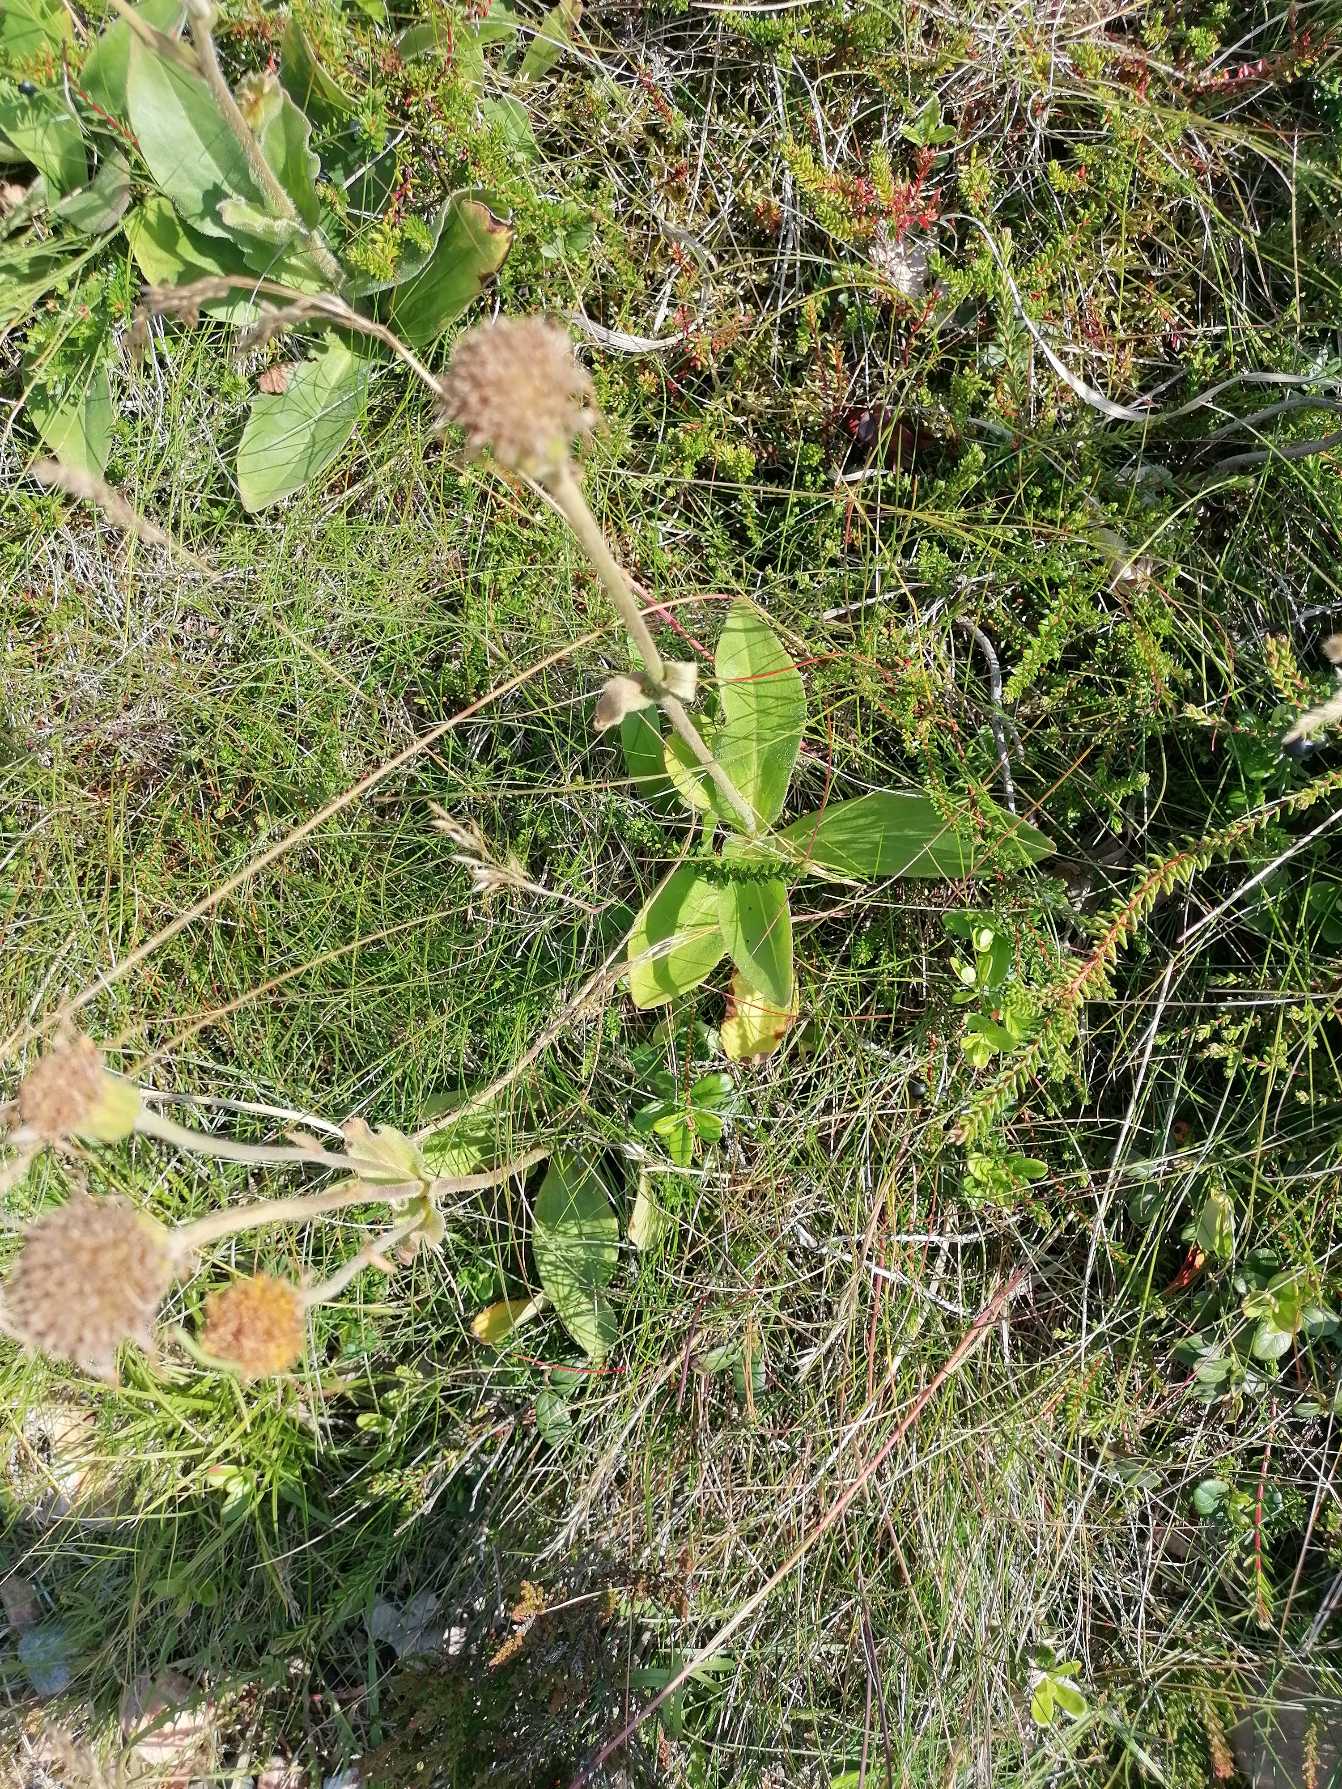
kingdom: Plantae
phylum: Tracheophyta
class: Magnoliopsida
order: Asterales
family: Asteraceae
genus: Arnica
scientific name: Arnica montana
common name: Guldblomme
